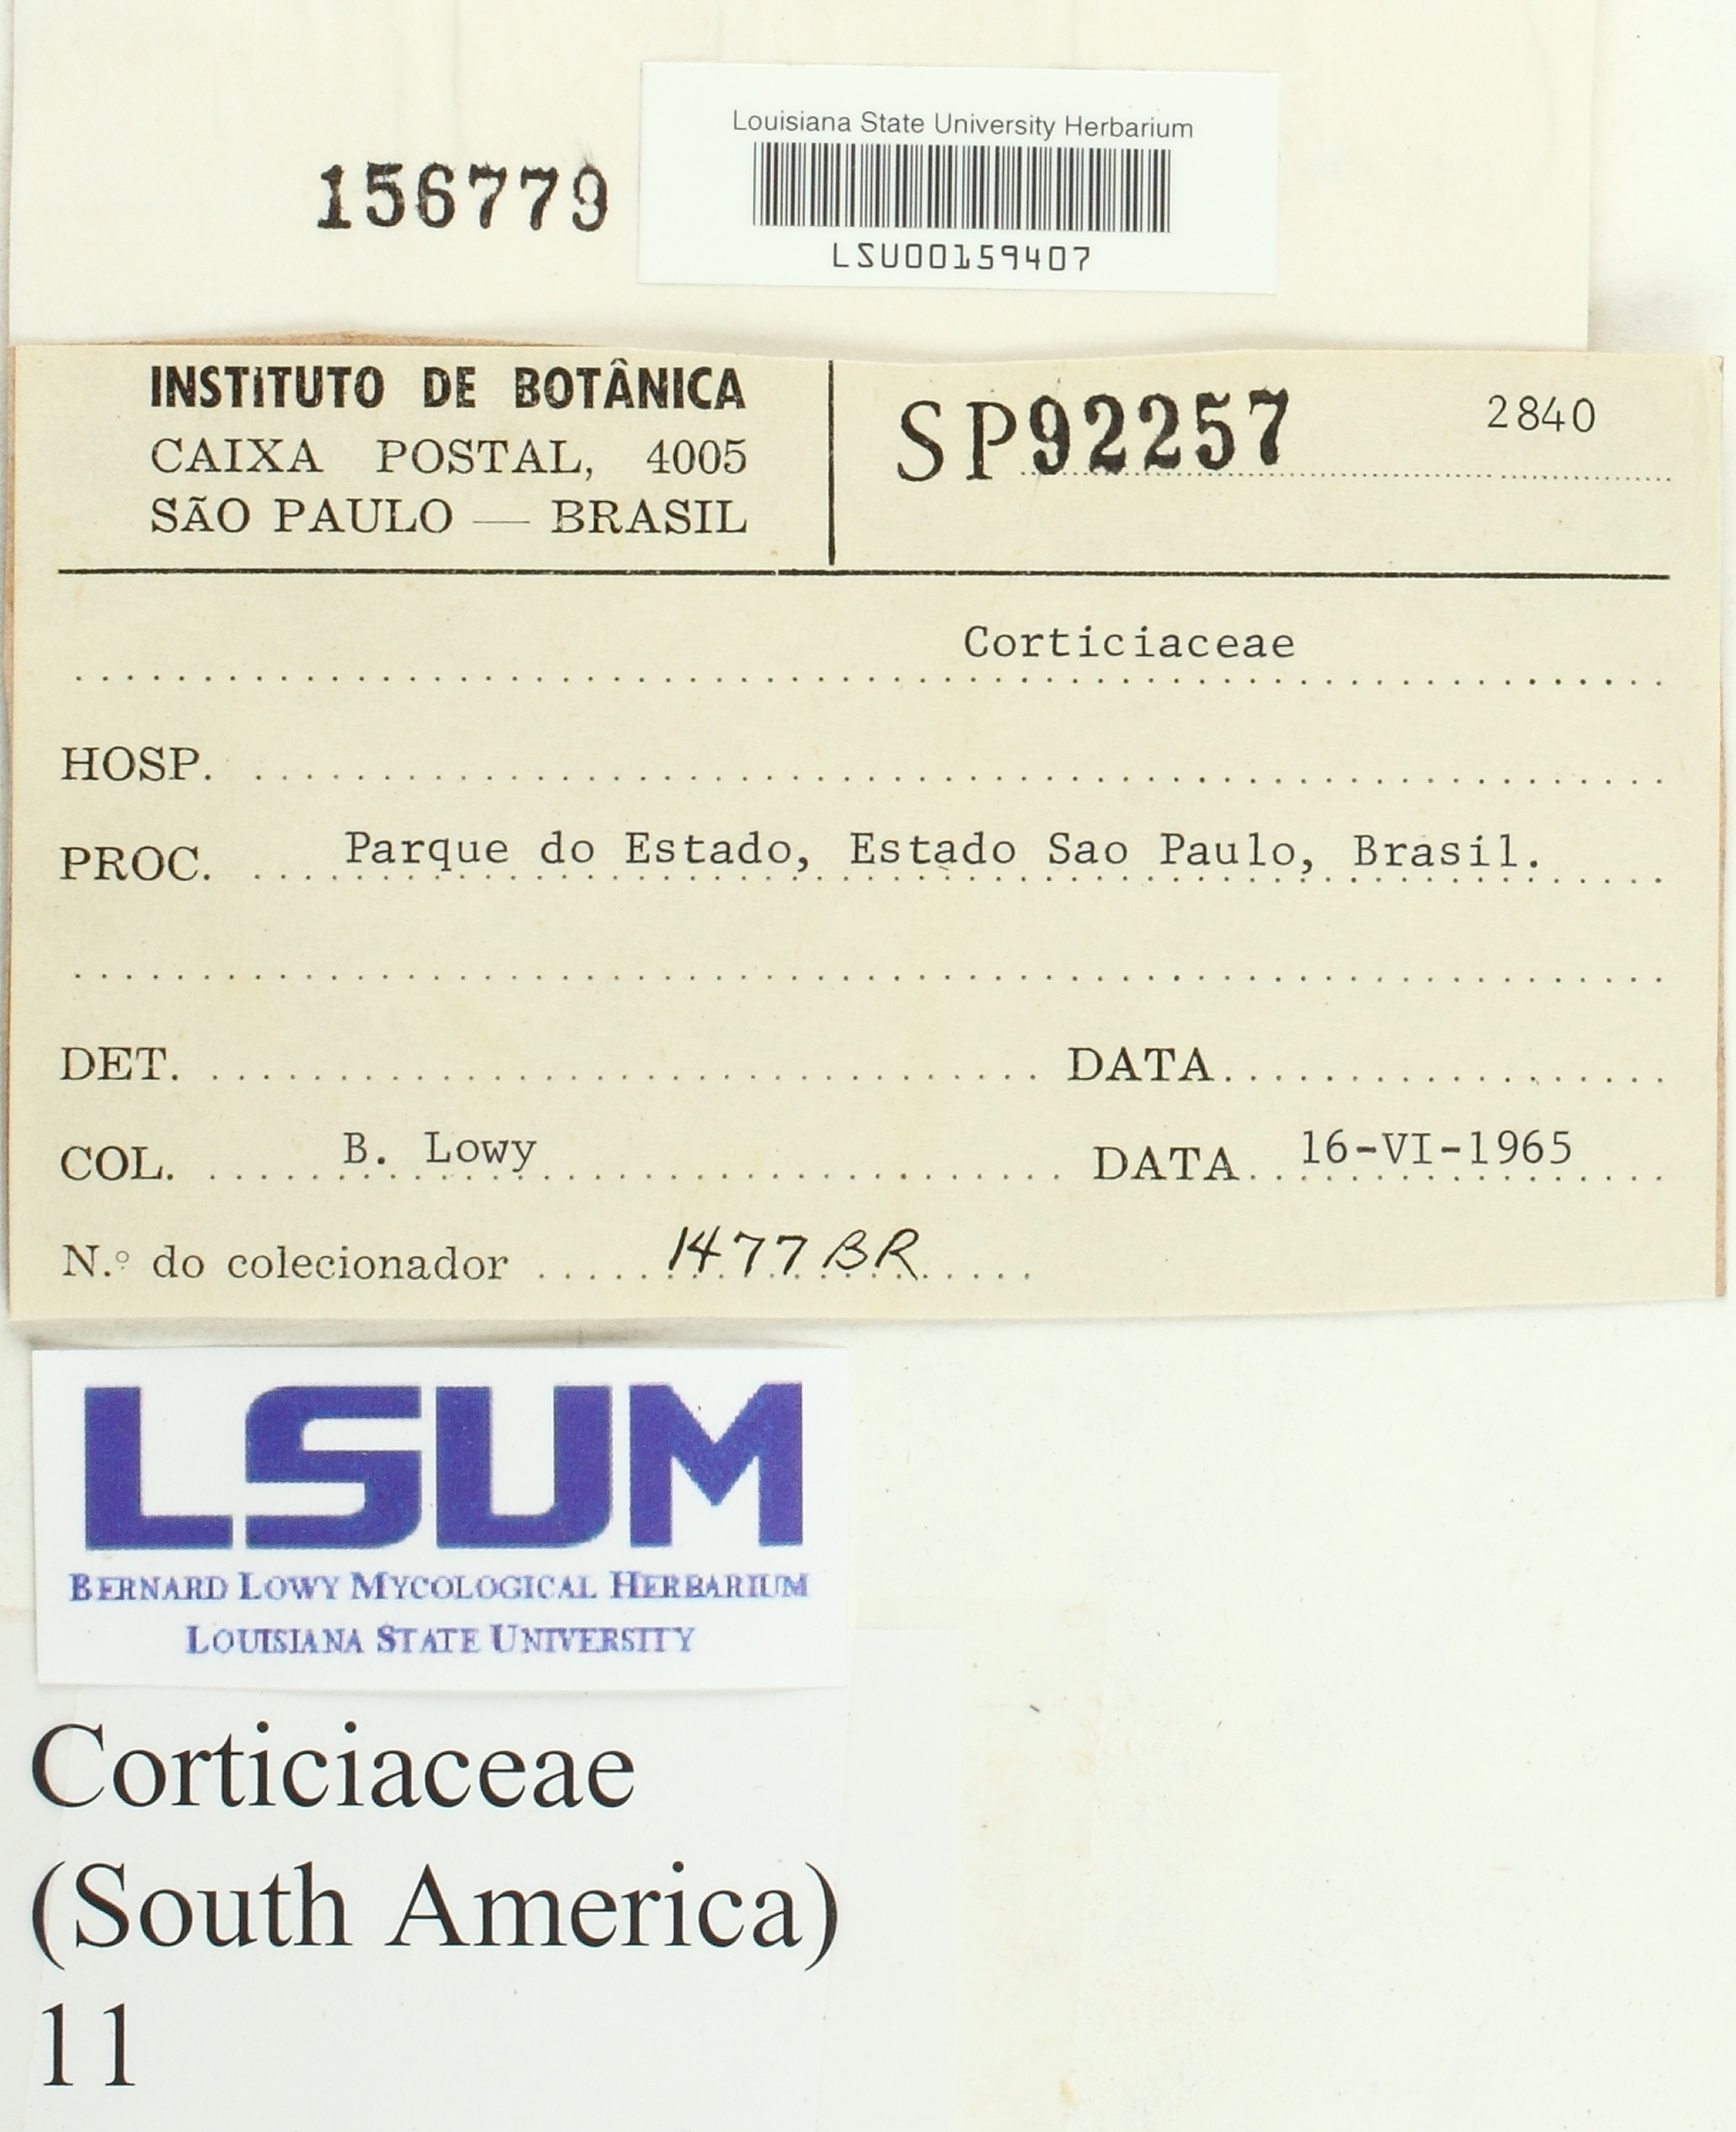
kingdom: Fungi
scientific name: Fungi
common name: Fungi
